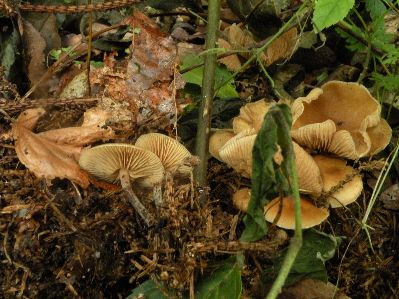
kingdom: Fungi
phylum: Basidiomycota
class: Agaricomycetes
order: Agaricales
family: Hymenogastraceae
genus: Galerina
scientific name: Galerina sideroides
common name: træflis-hjelmhat
